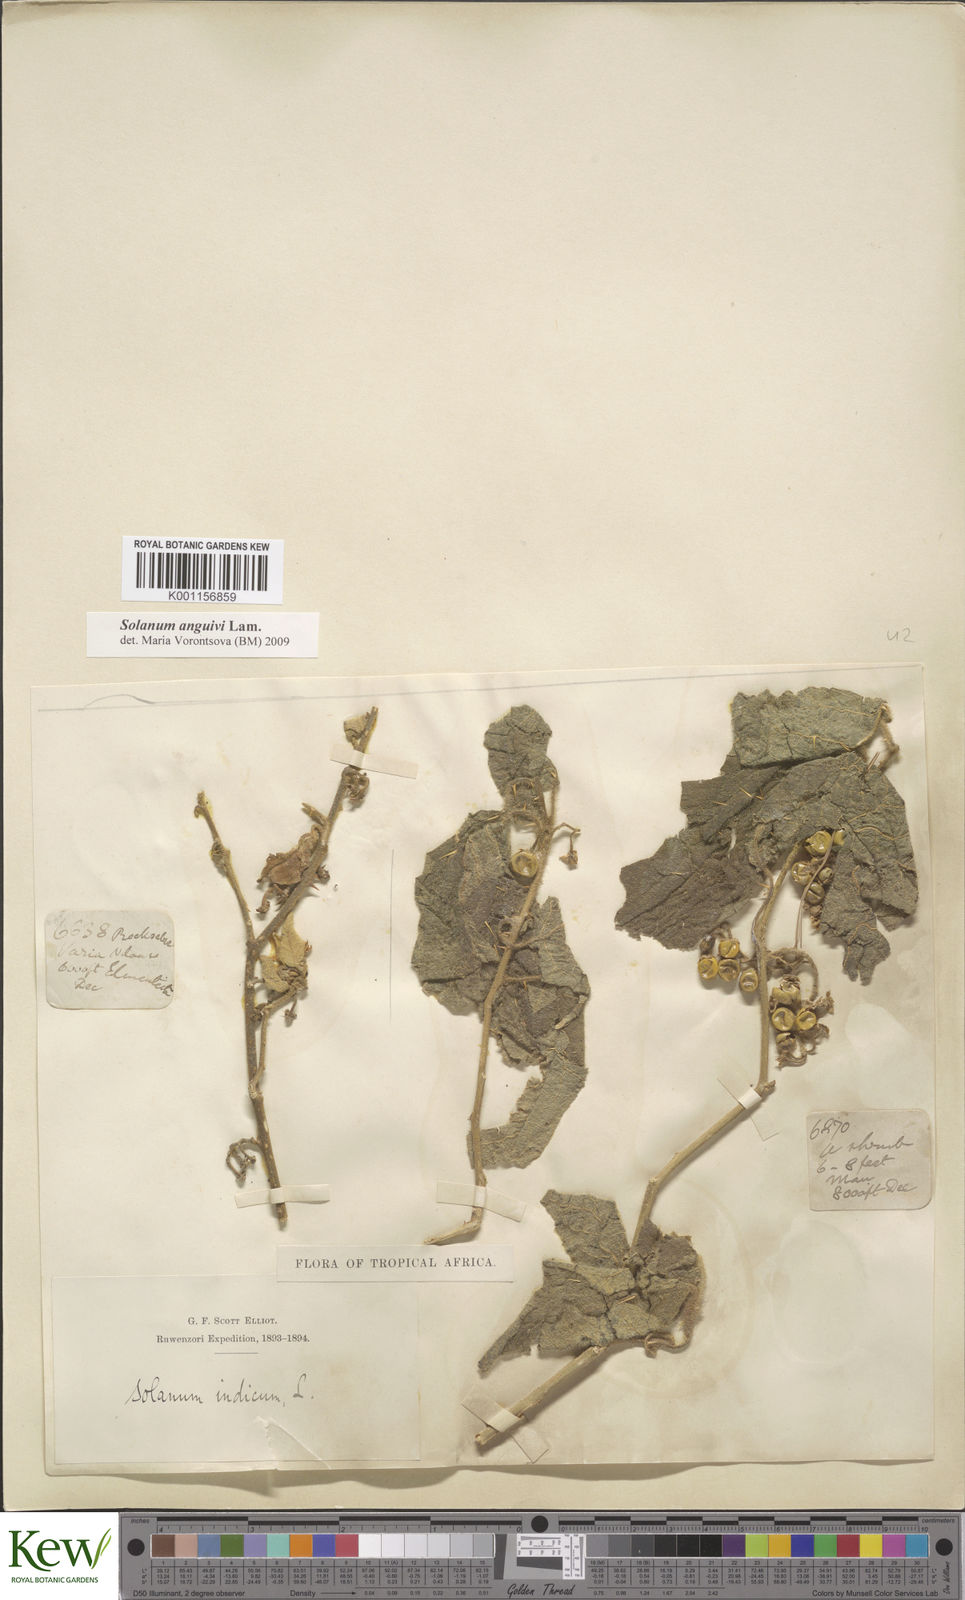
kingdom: Plantae
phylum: Tracheophyta
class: Magnoliopsida
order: Solanales
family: Solanaceae
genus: Solanum
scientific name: Solanum anguivi
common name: Forest bitterberry
